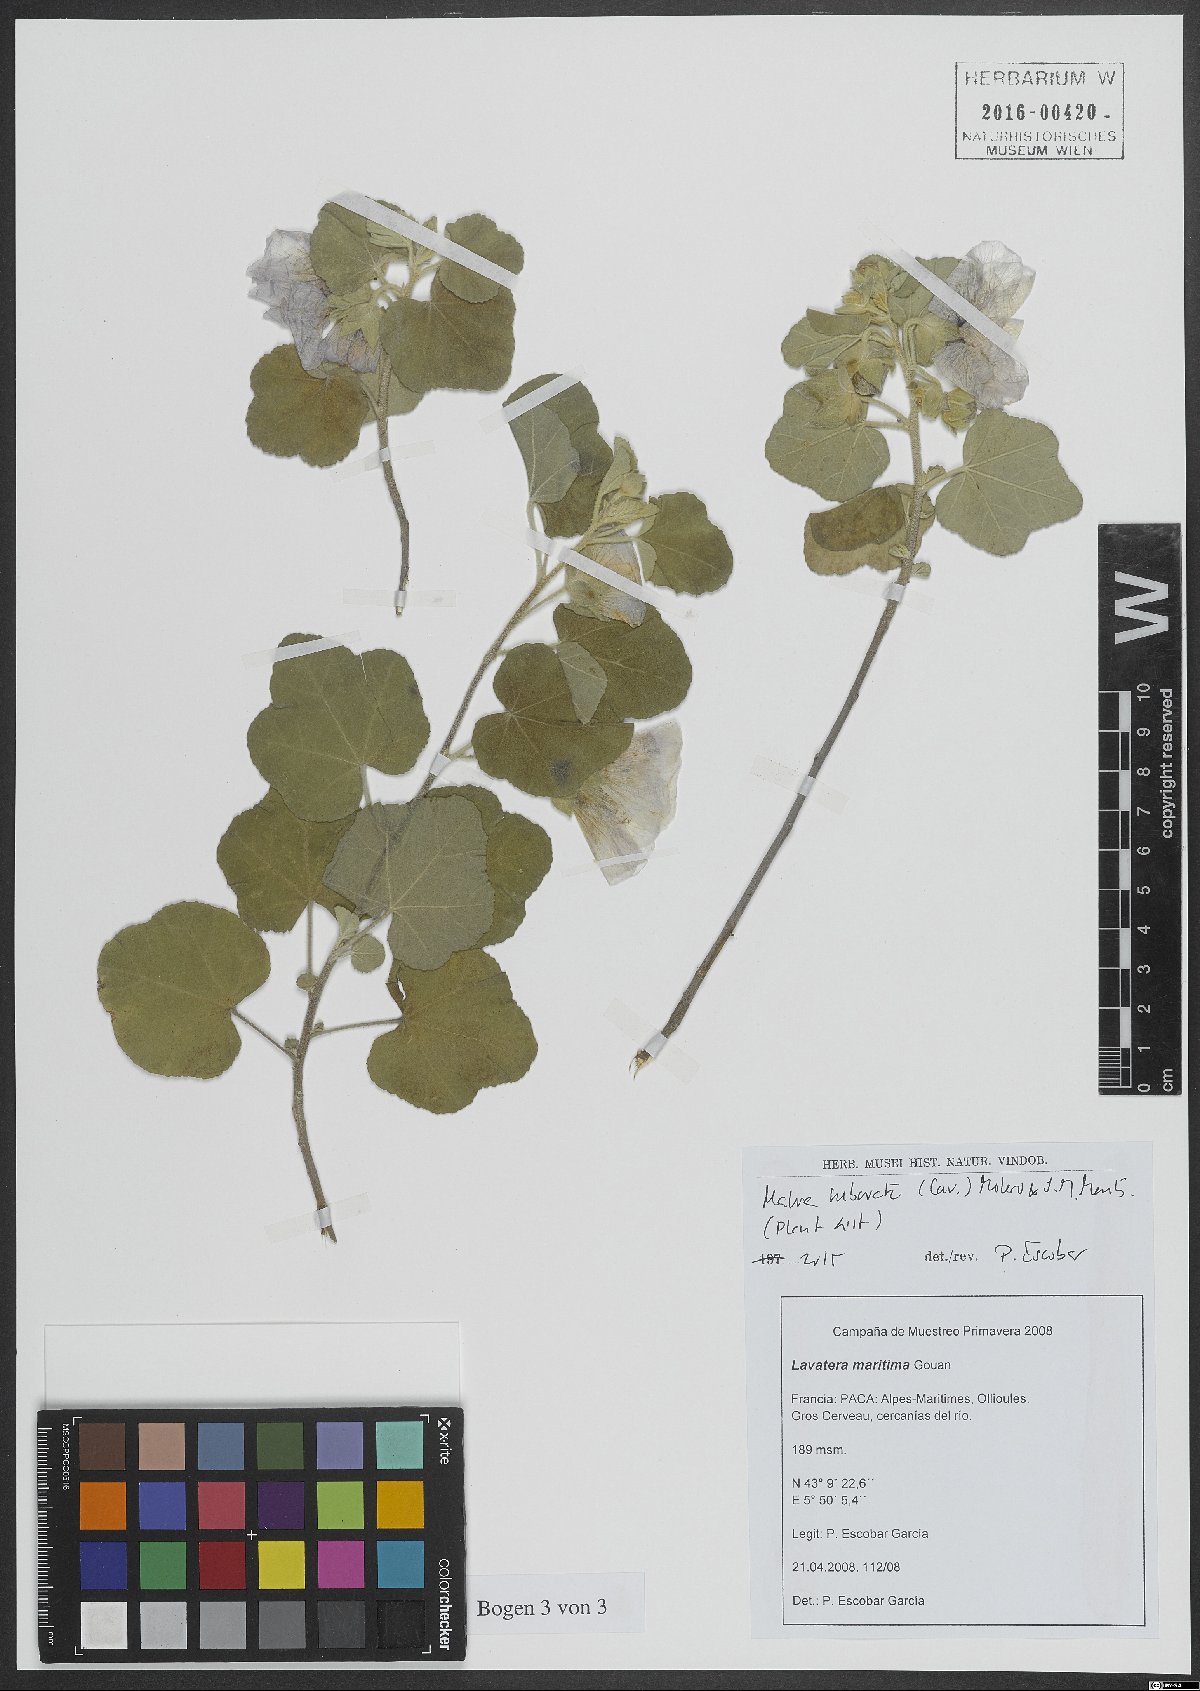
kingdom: Plantae
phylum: Tracheophyta
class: Magnoliopsida
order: Malvales
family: Malvaceae
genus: Malva
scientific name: Malva subovata
